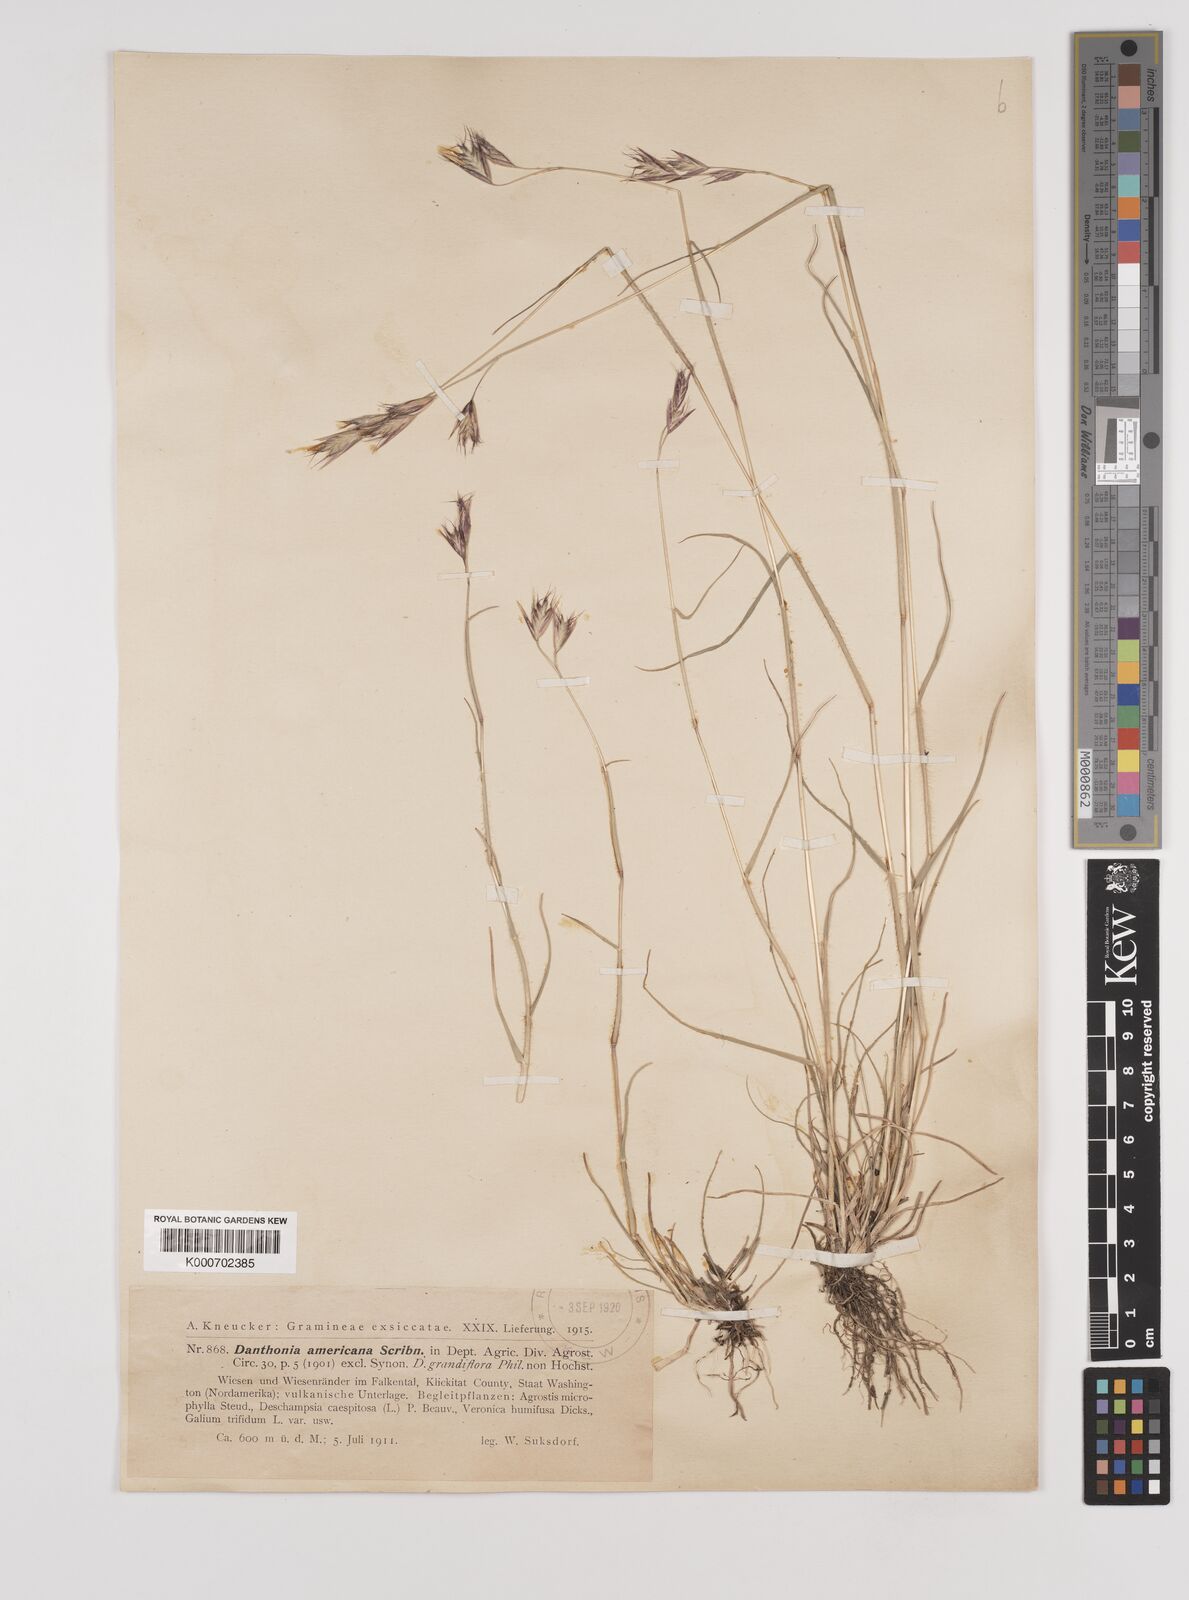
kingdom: Plantae
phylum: Tracheophyta
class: Liliopsida
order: Poales
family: Poaceae
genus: Danthonia
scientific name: Danthonia californica
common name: California oat grass
